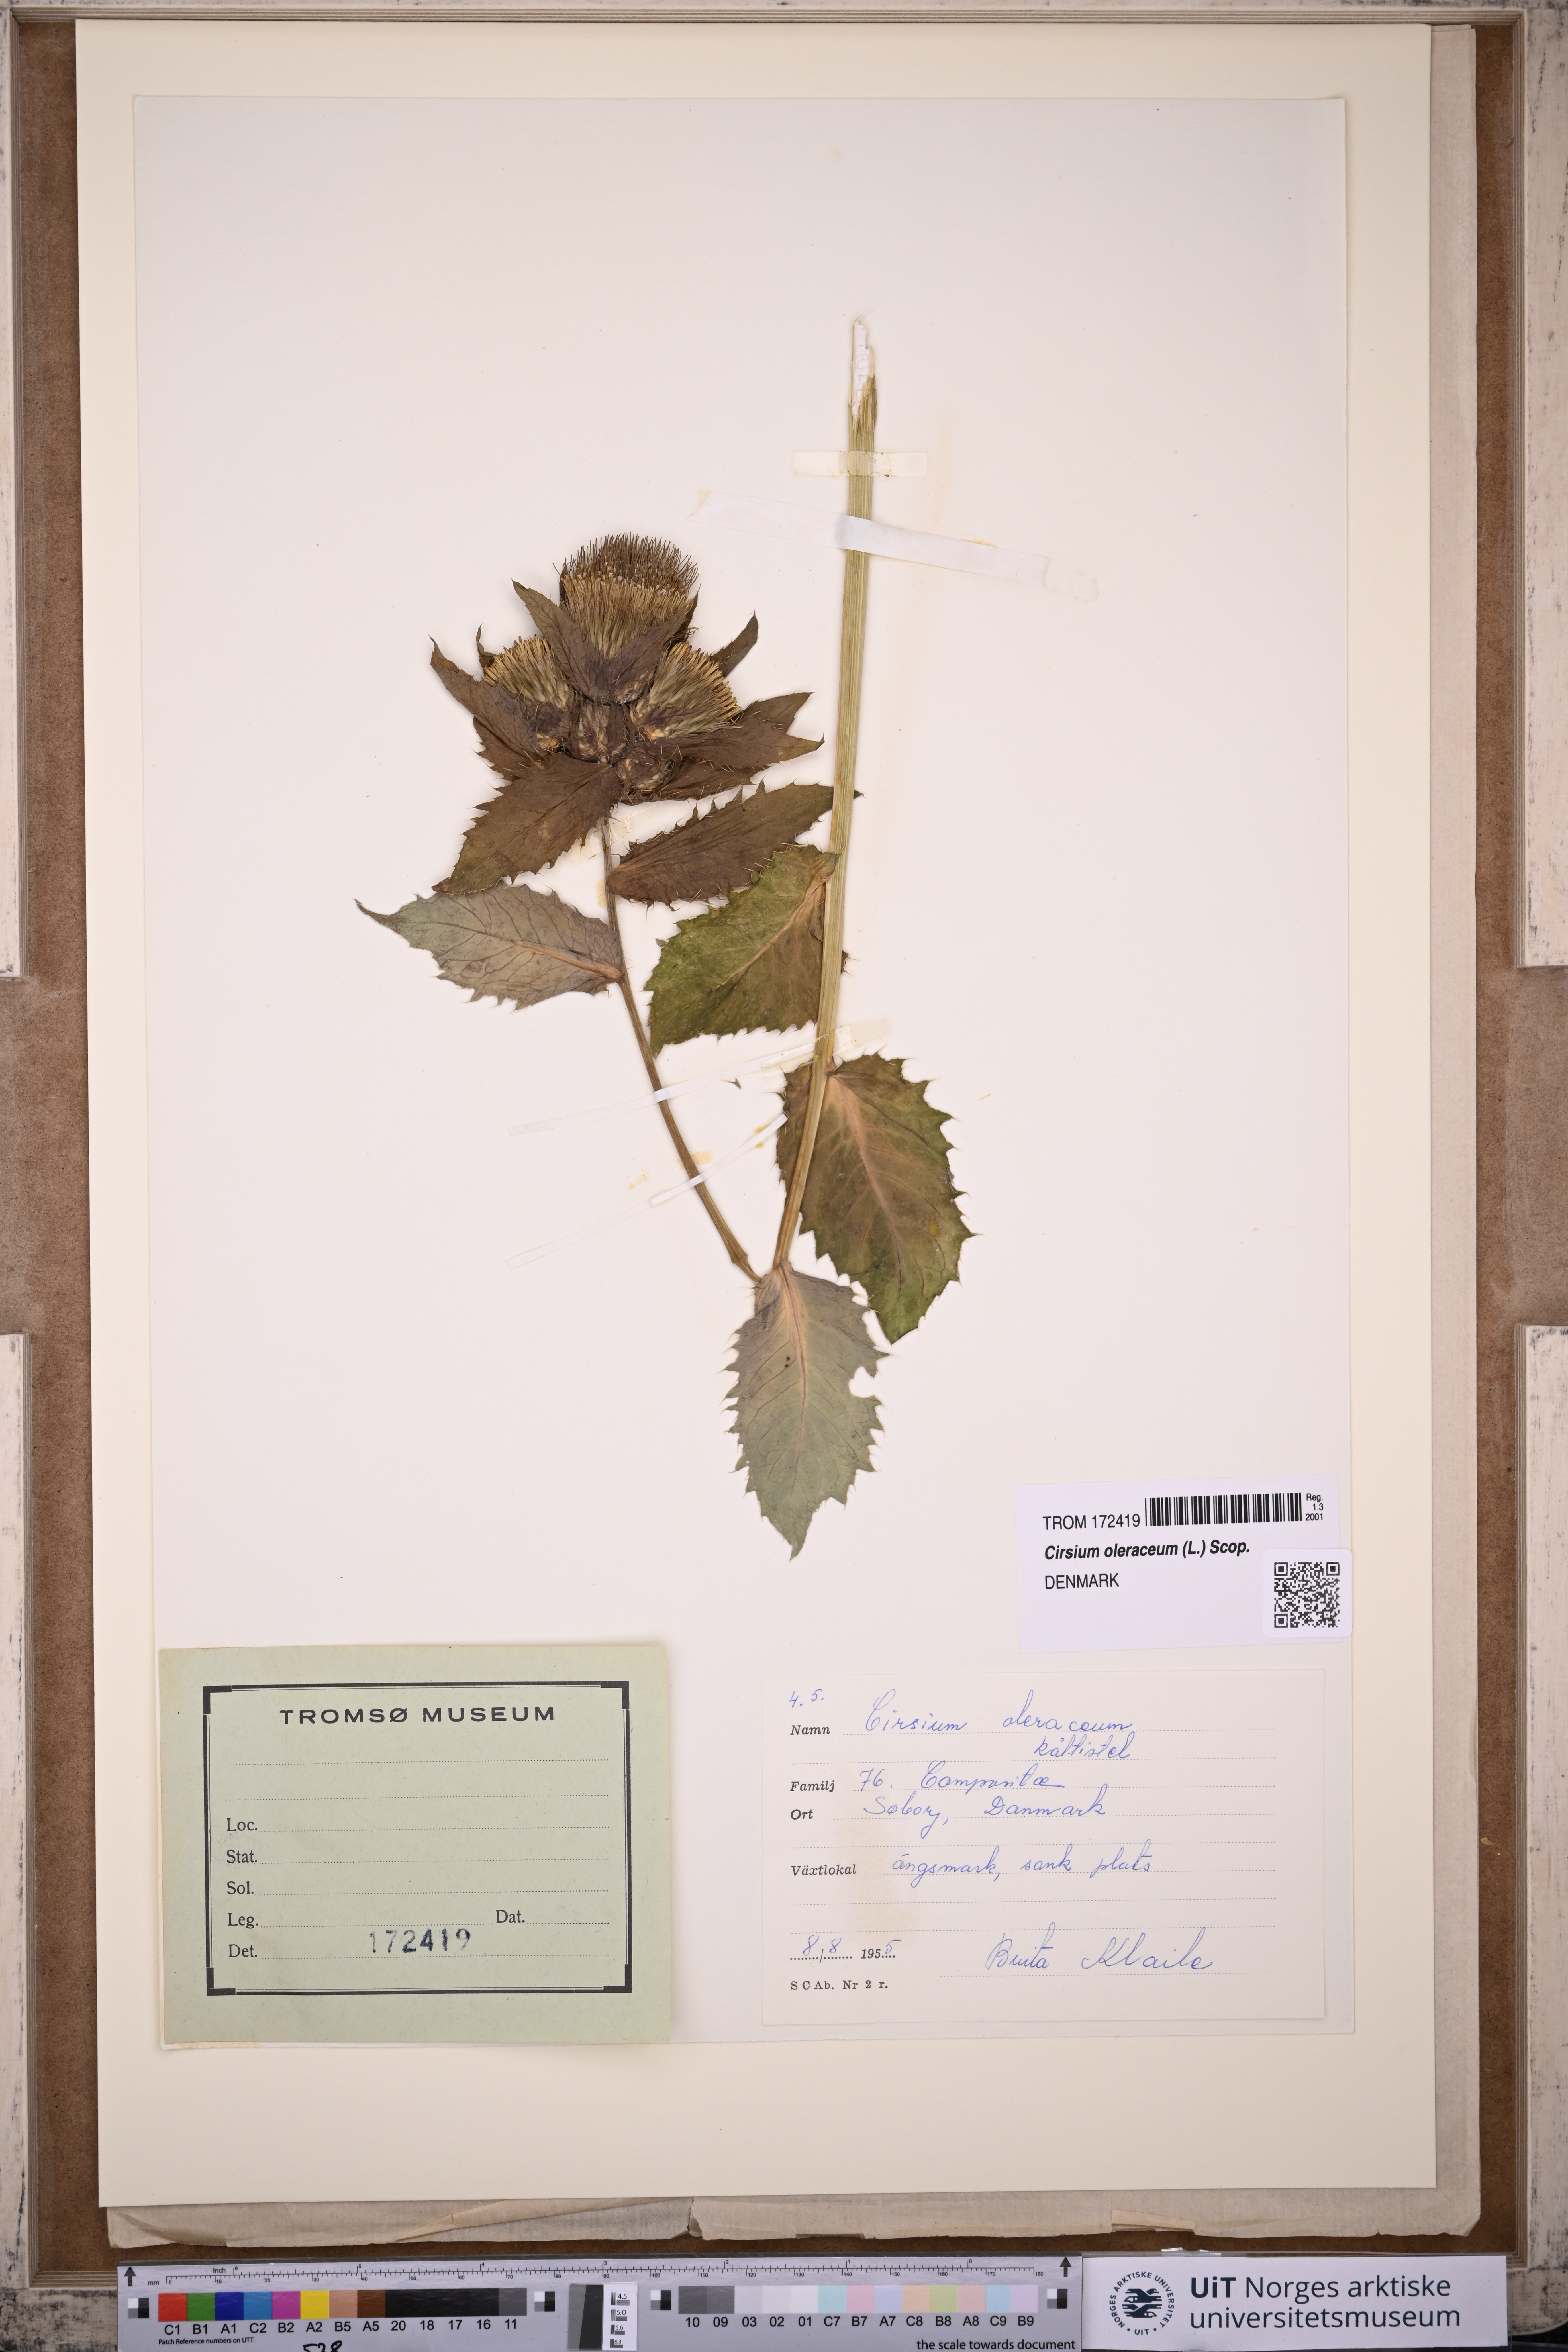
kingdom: Plantae
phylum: Tracheophyta
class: Magnoliopsida
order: Asterales
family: Asteraceae
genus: Cirsium
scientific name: Cirsium oleraceum
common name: Cabbage thistle
